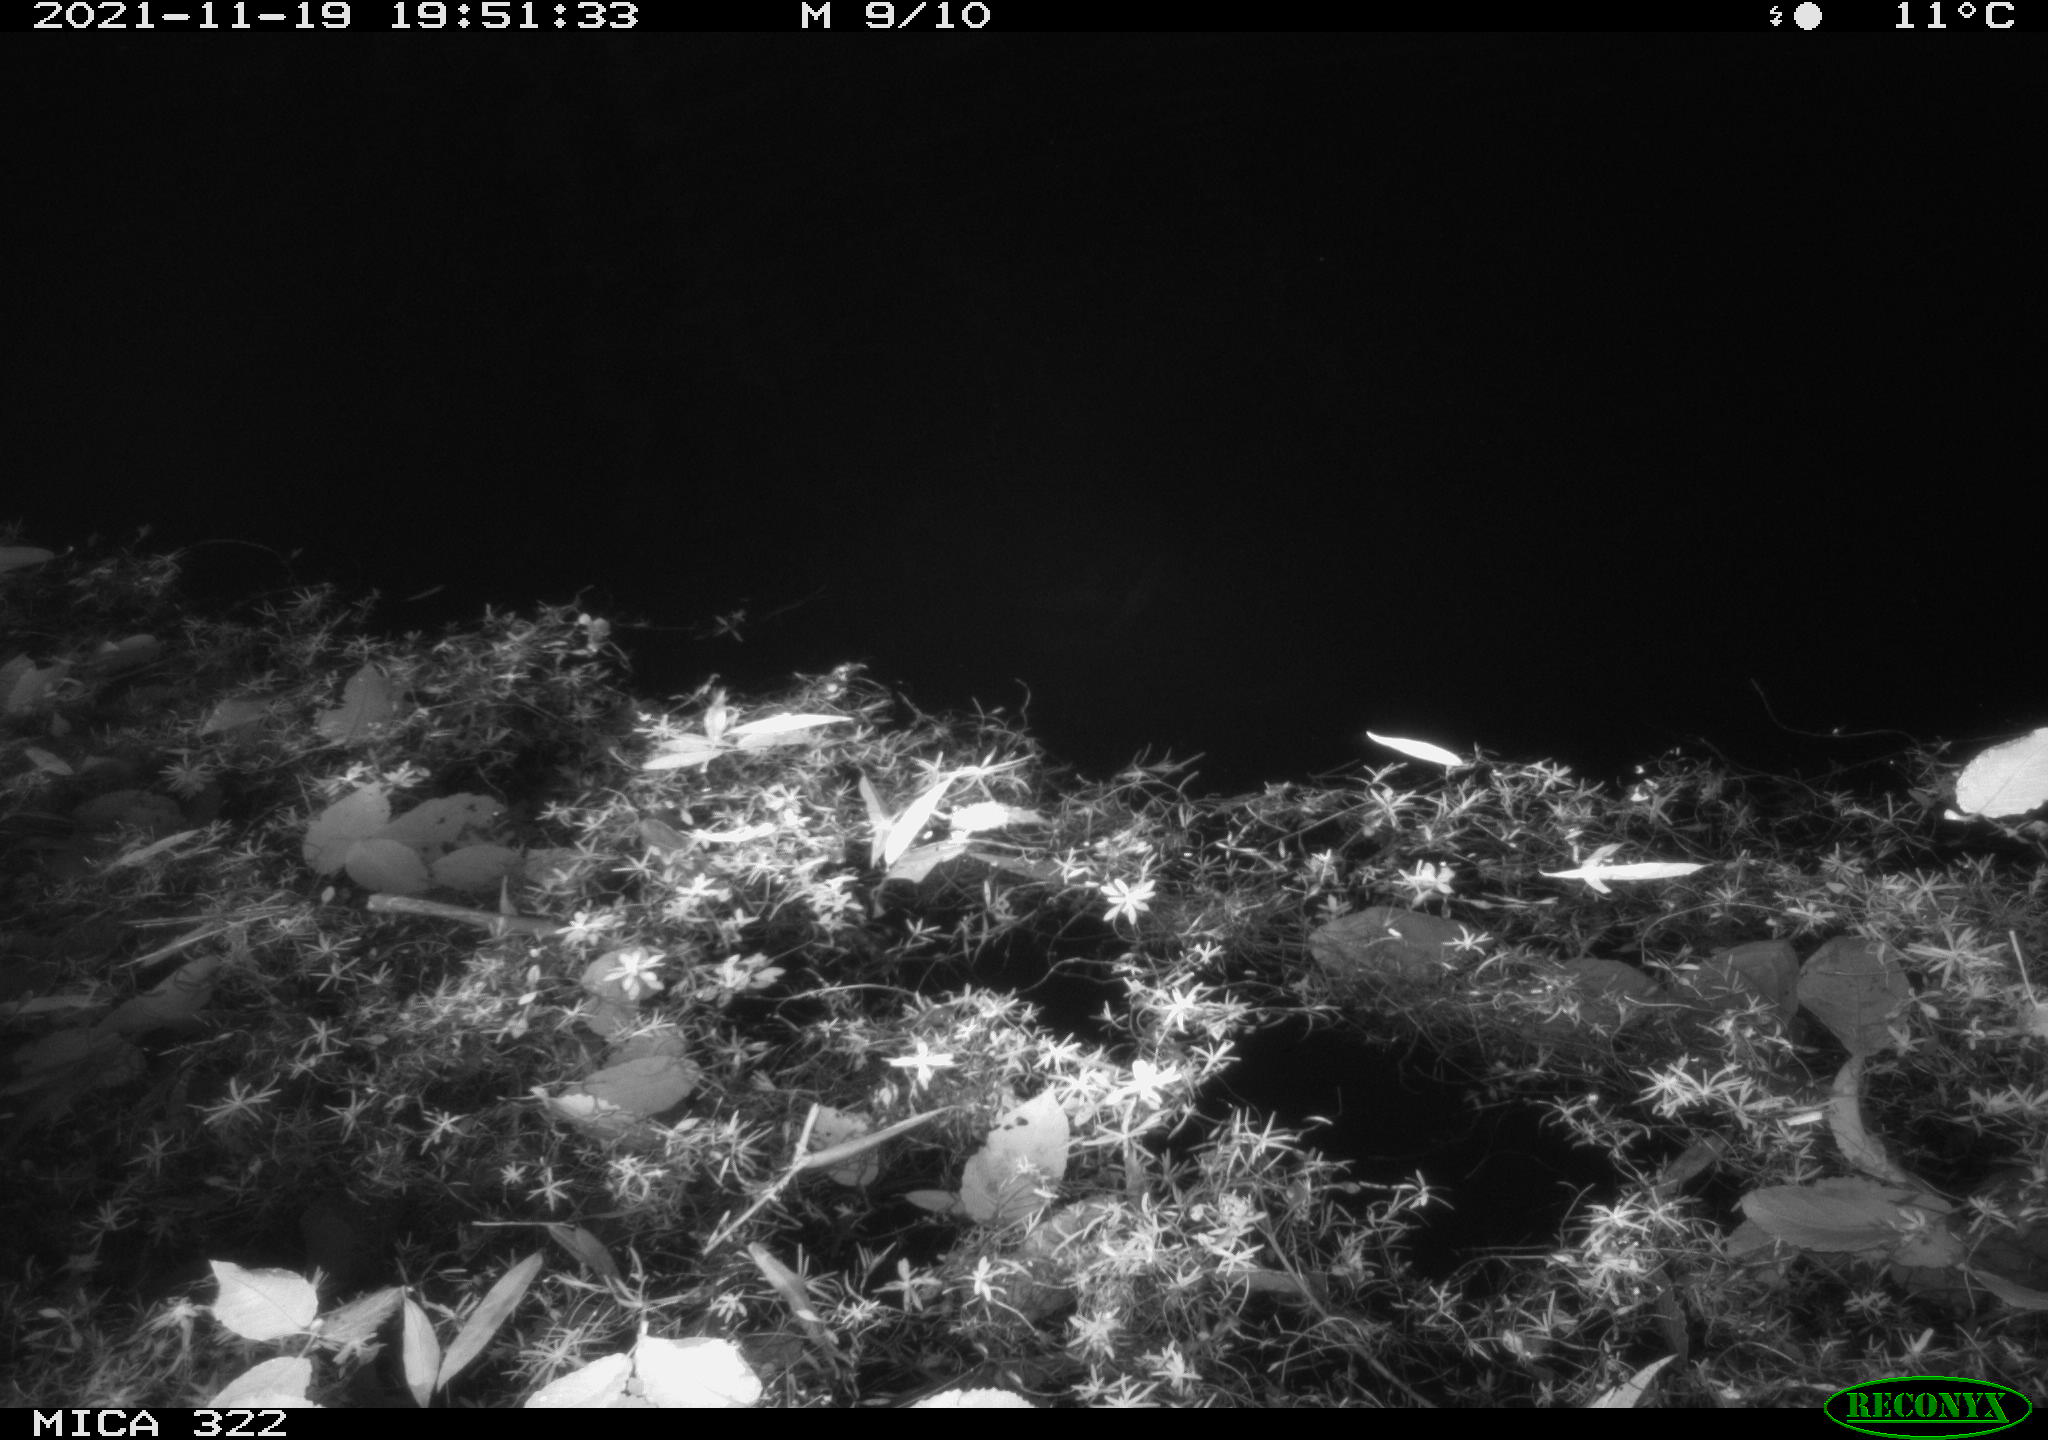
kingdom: Animalia
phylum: Chordata
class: Mammalia
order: Rodentia
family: Muridae
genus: Rattus
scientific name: Rattus norvegicus
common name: Brown rat
